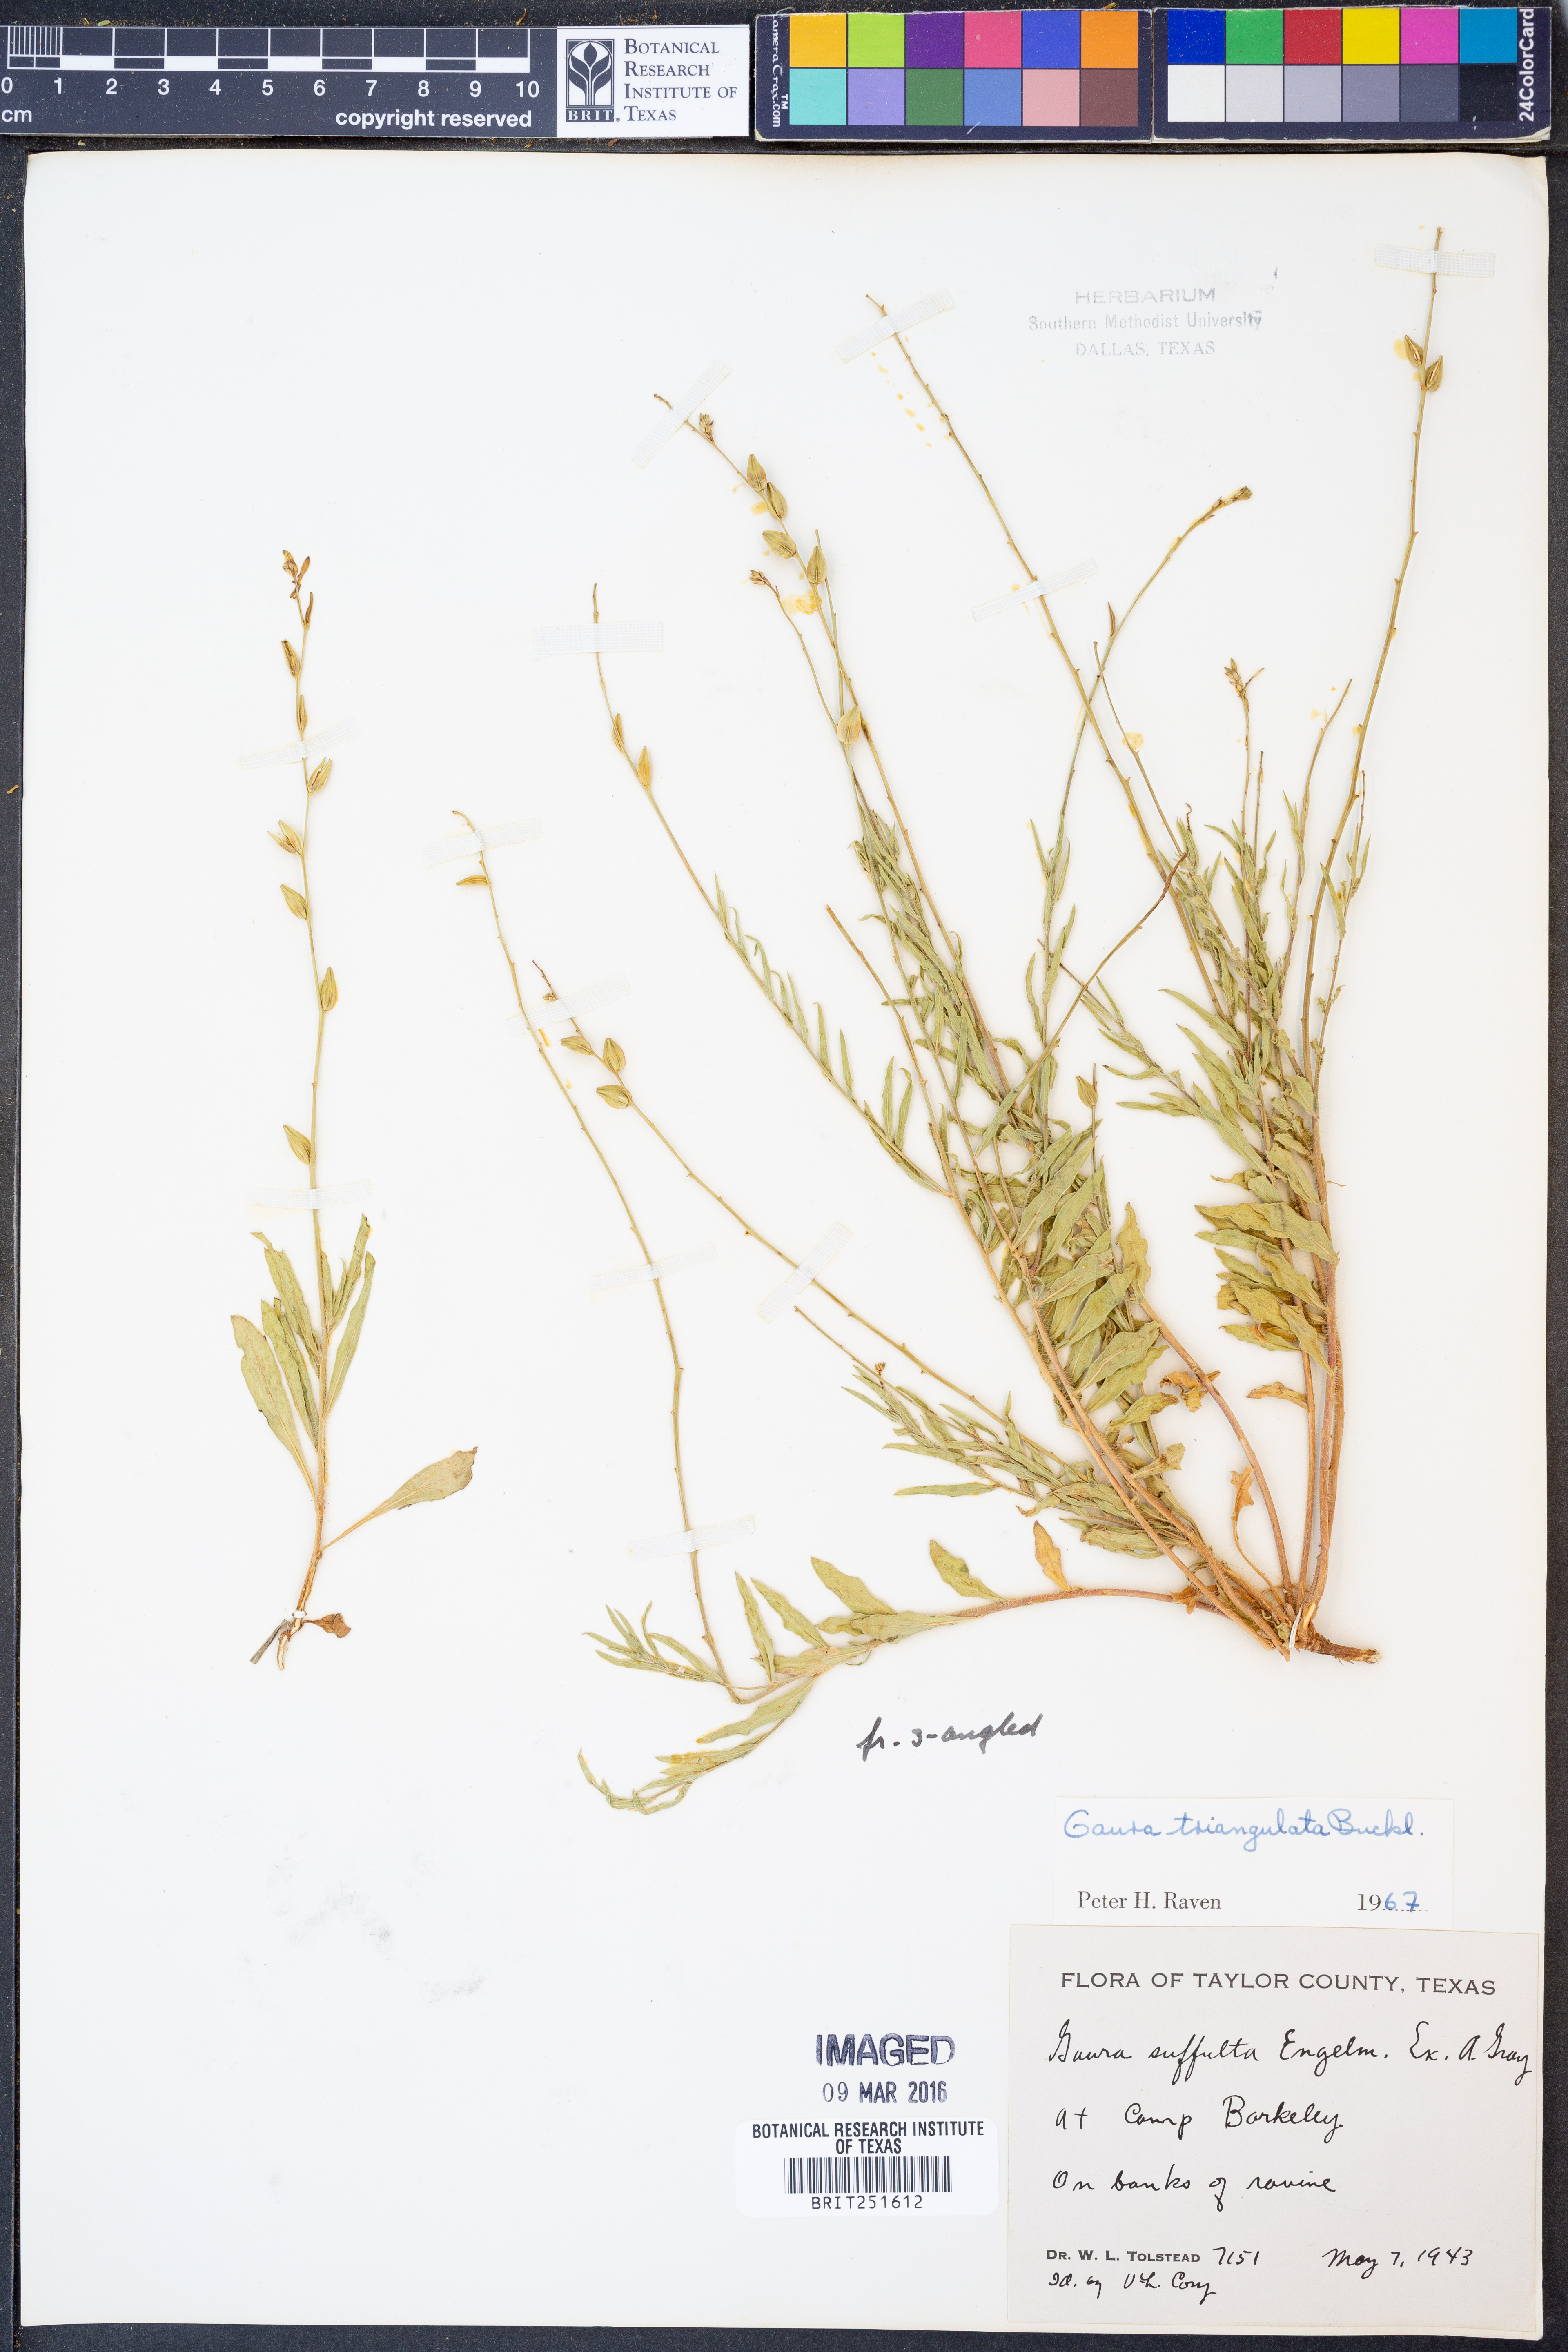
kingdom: Plantae
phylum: Tracheophyta
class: Magnoliopsida
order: Myrtales
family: Onagraceae
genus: Oenothera
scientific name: Oenothera triangulata
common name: Prairie beeblossom
